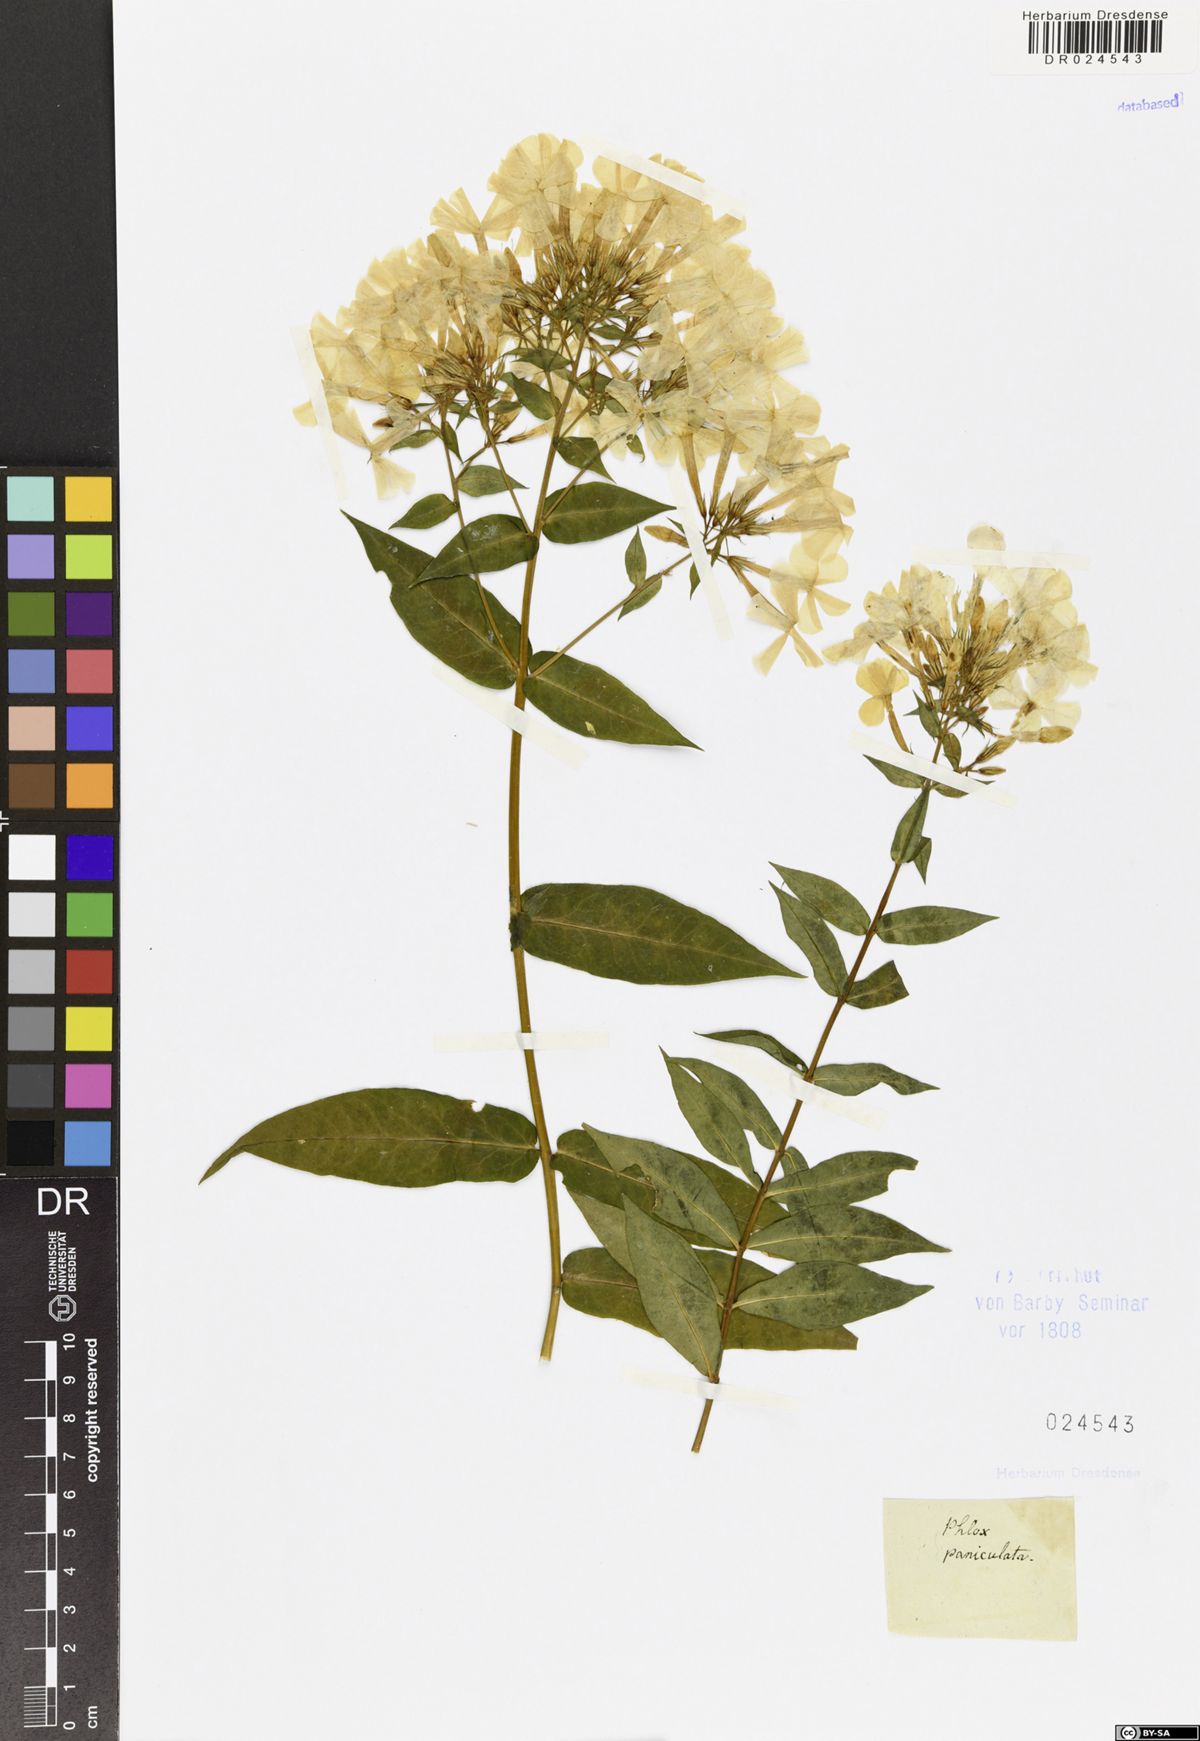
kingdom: Plantae
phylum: Tracheophyta
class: Magnoliopsida
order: Ericales
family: Polemoniaceae
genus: Phlox
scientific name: Phlox paniculata
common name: Fall phlox
